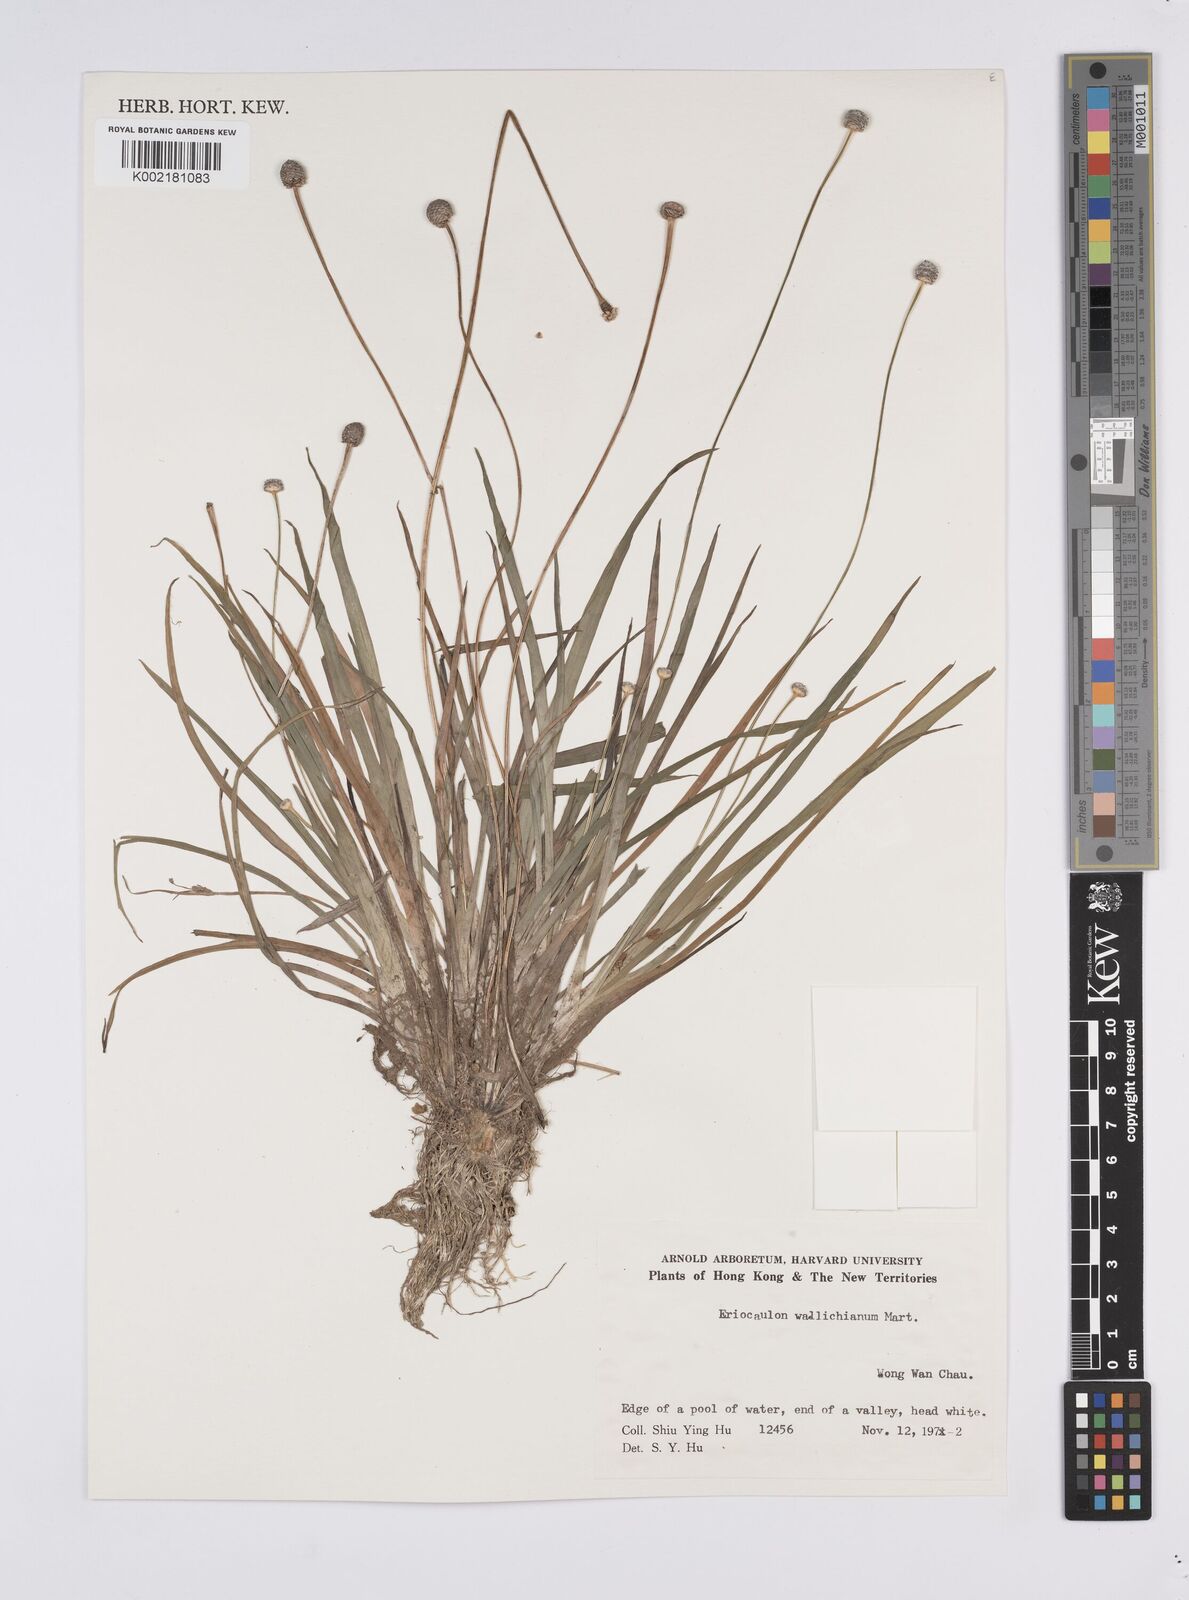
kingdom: Plantae
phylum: Tracheophyta
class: Liliopsida
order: Poales
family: Eriocaulaceae
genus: Eriocaulon
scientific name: Eriocaulon sexangulare
